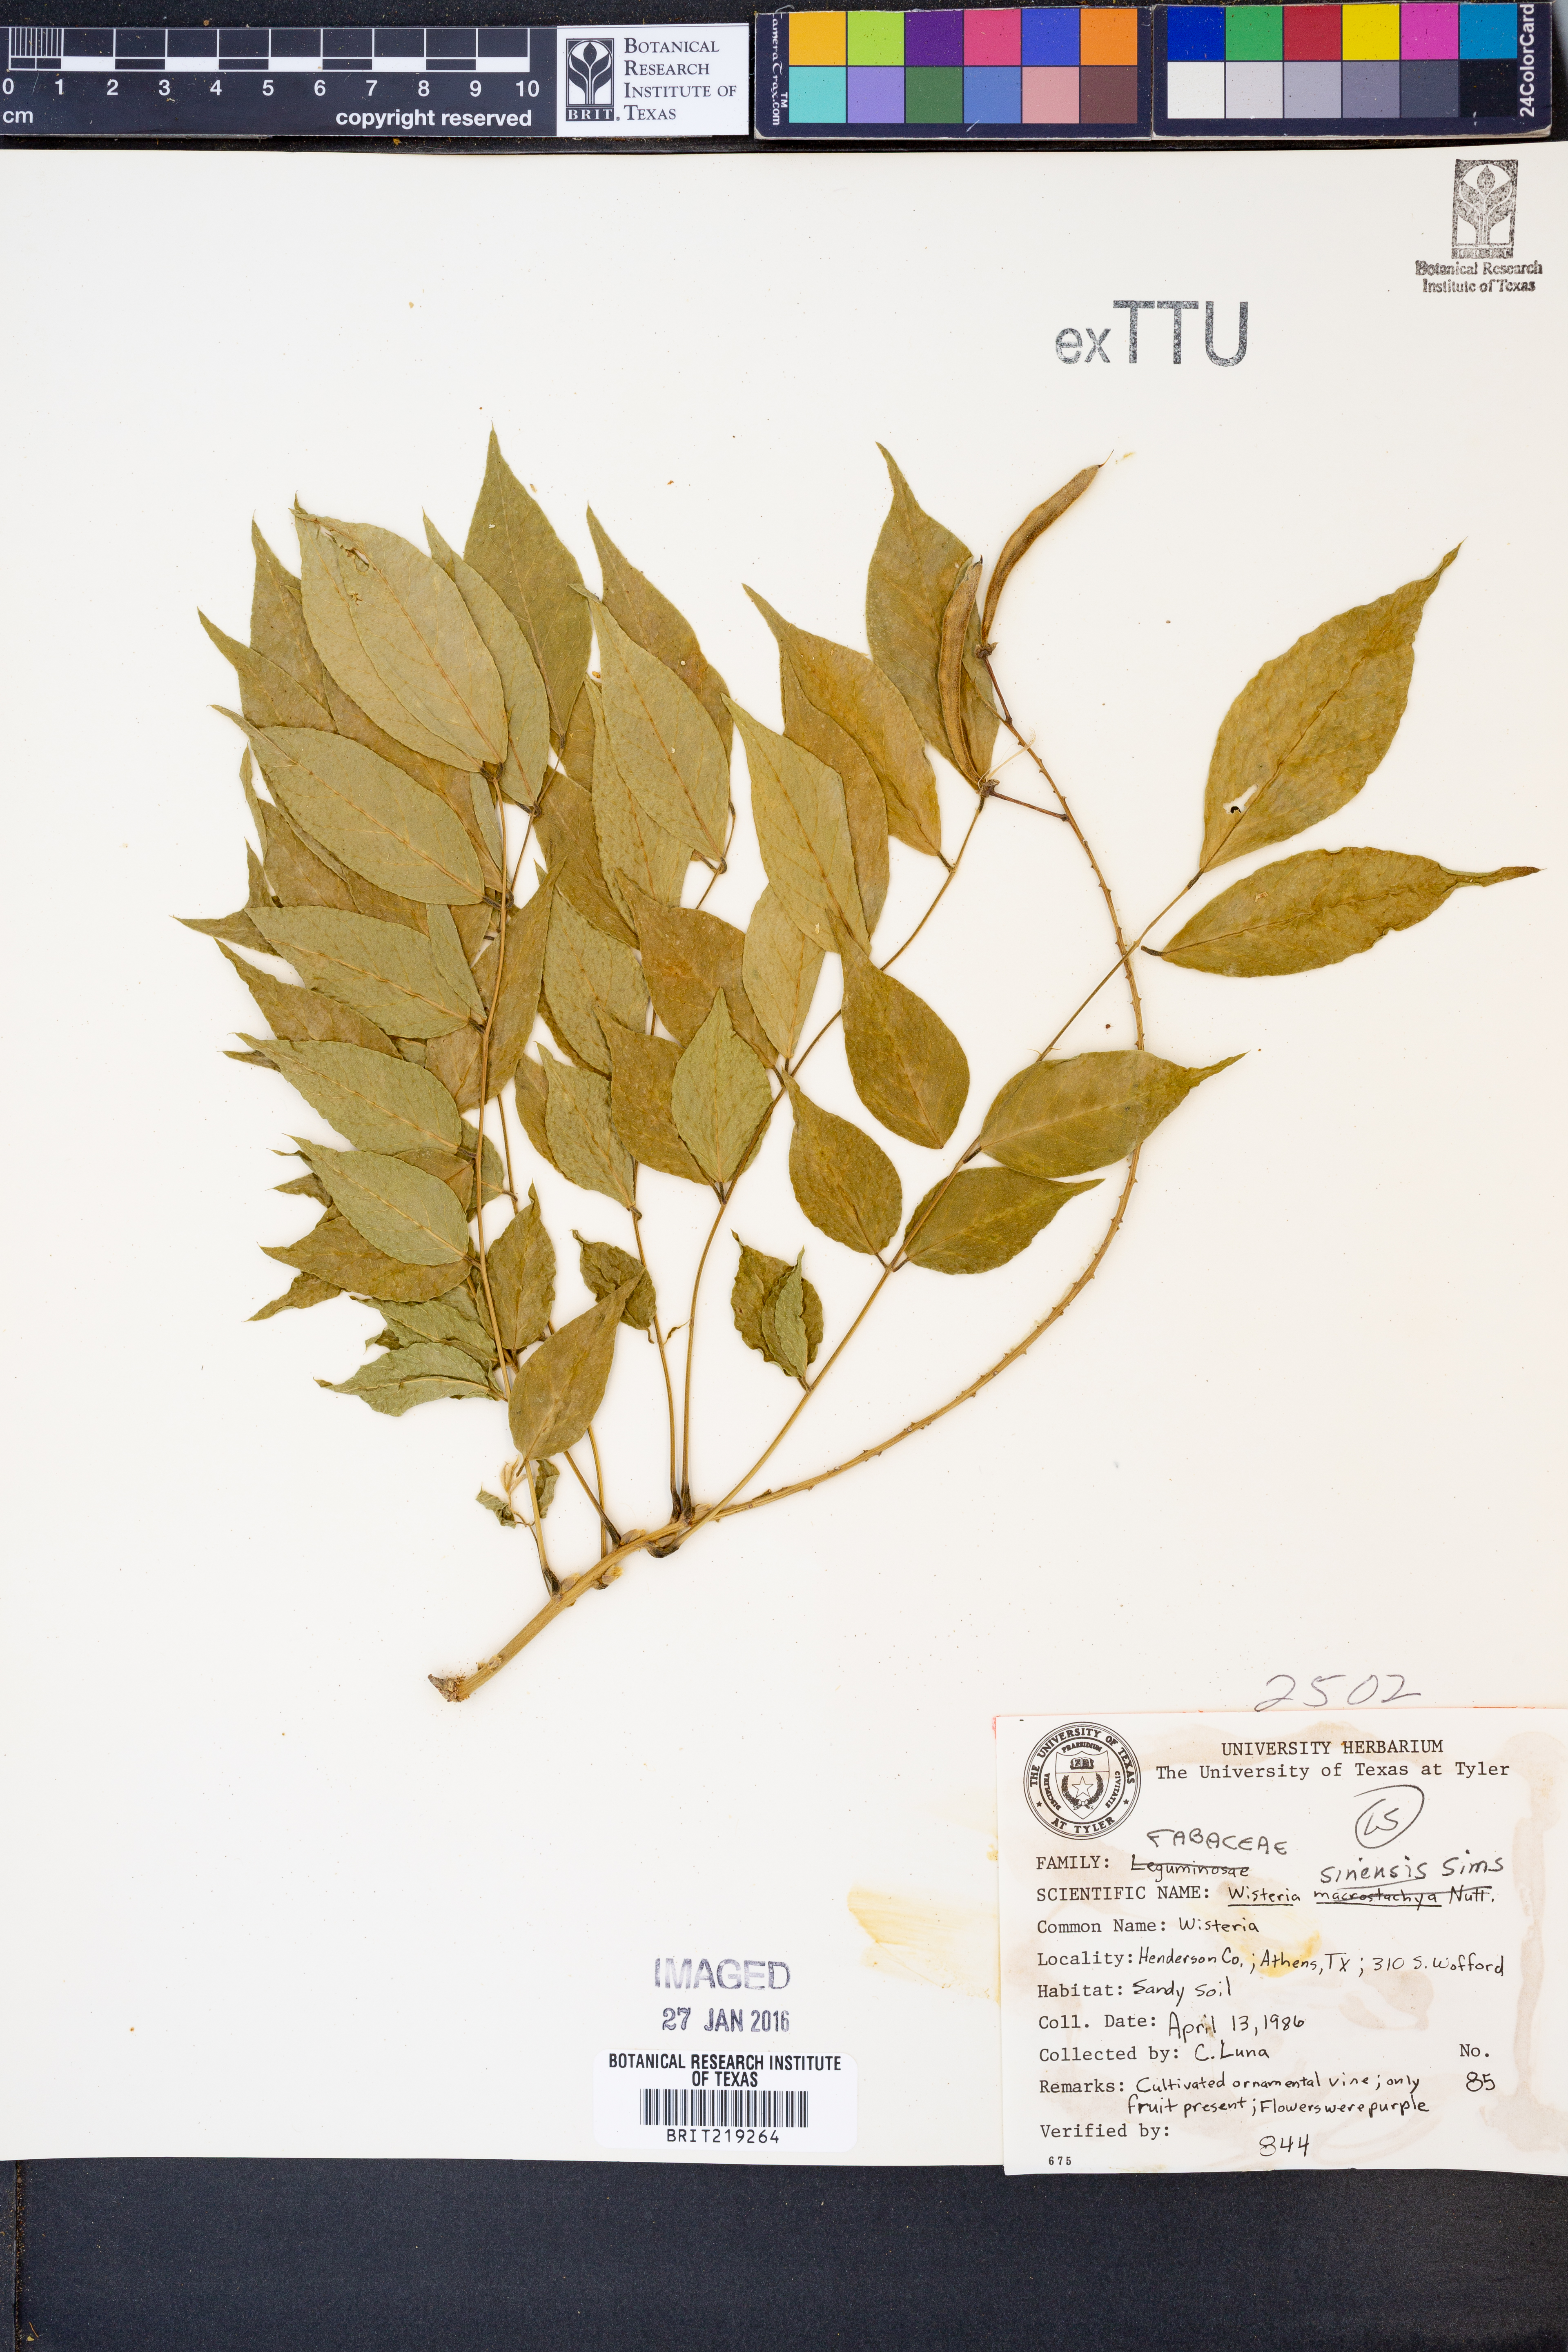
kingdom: Plantae
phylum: Tracheophyta
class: Magnoliopsida
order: Fabales
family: Fabaceae
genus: Wisteria
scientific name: Wisteria sinensis
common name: Chinese wisteria
